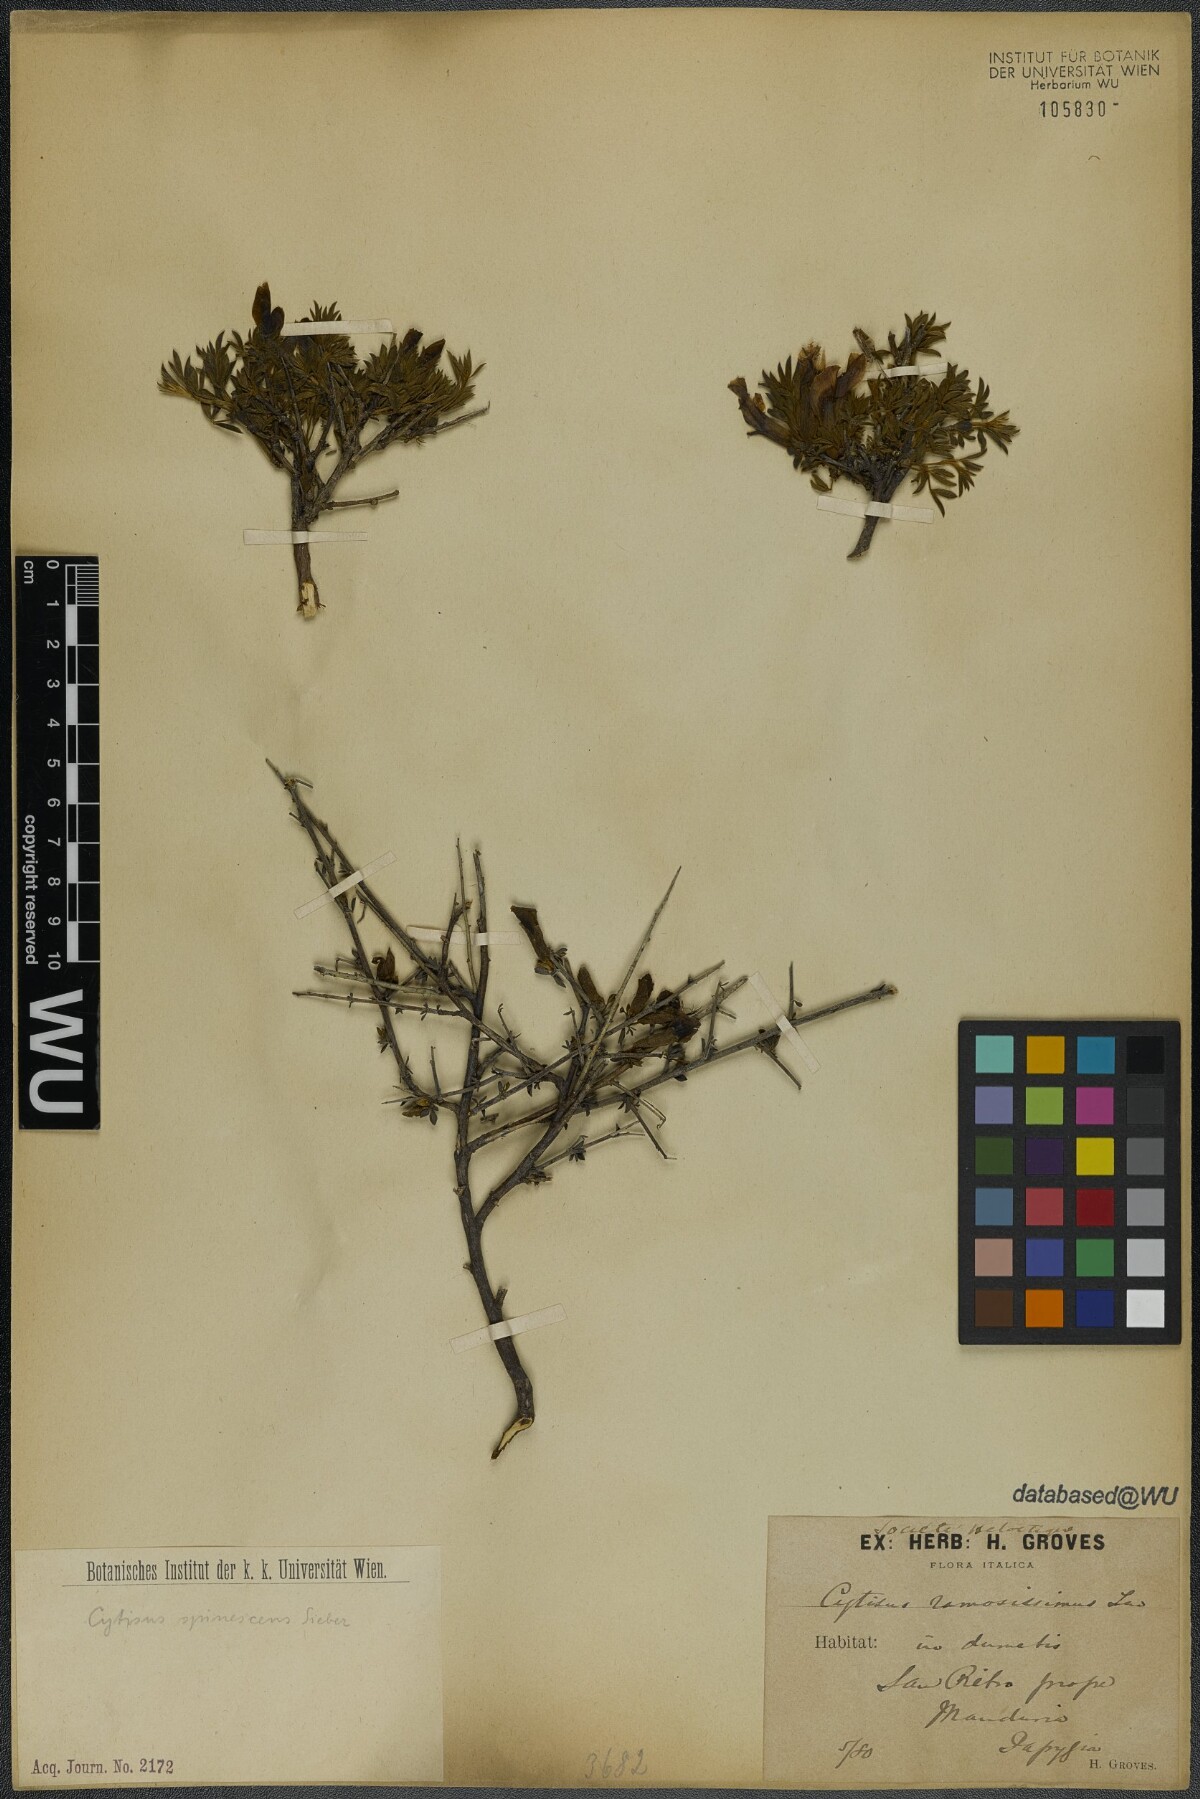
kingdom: Plantae
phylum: Tracheophyta
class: Magnoliopsida
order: Fabales
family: Fabaceae
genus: Chamaecytisus
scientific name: Chamaecytisus spinescens
